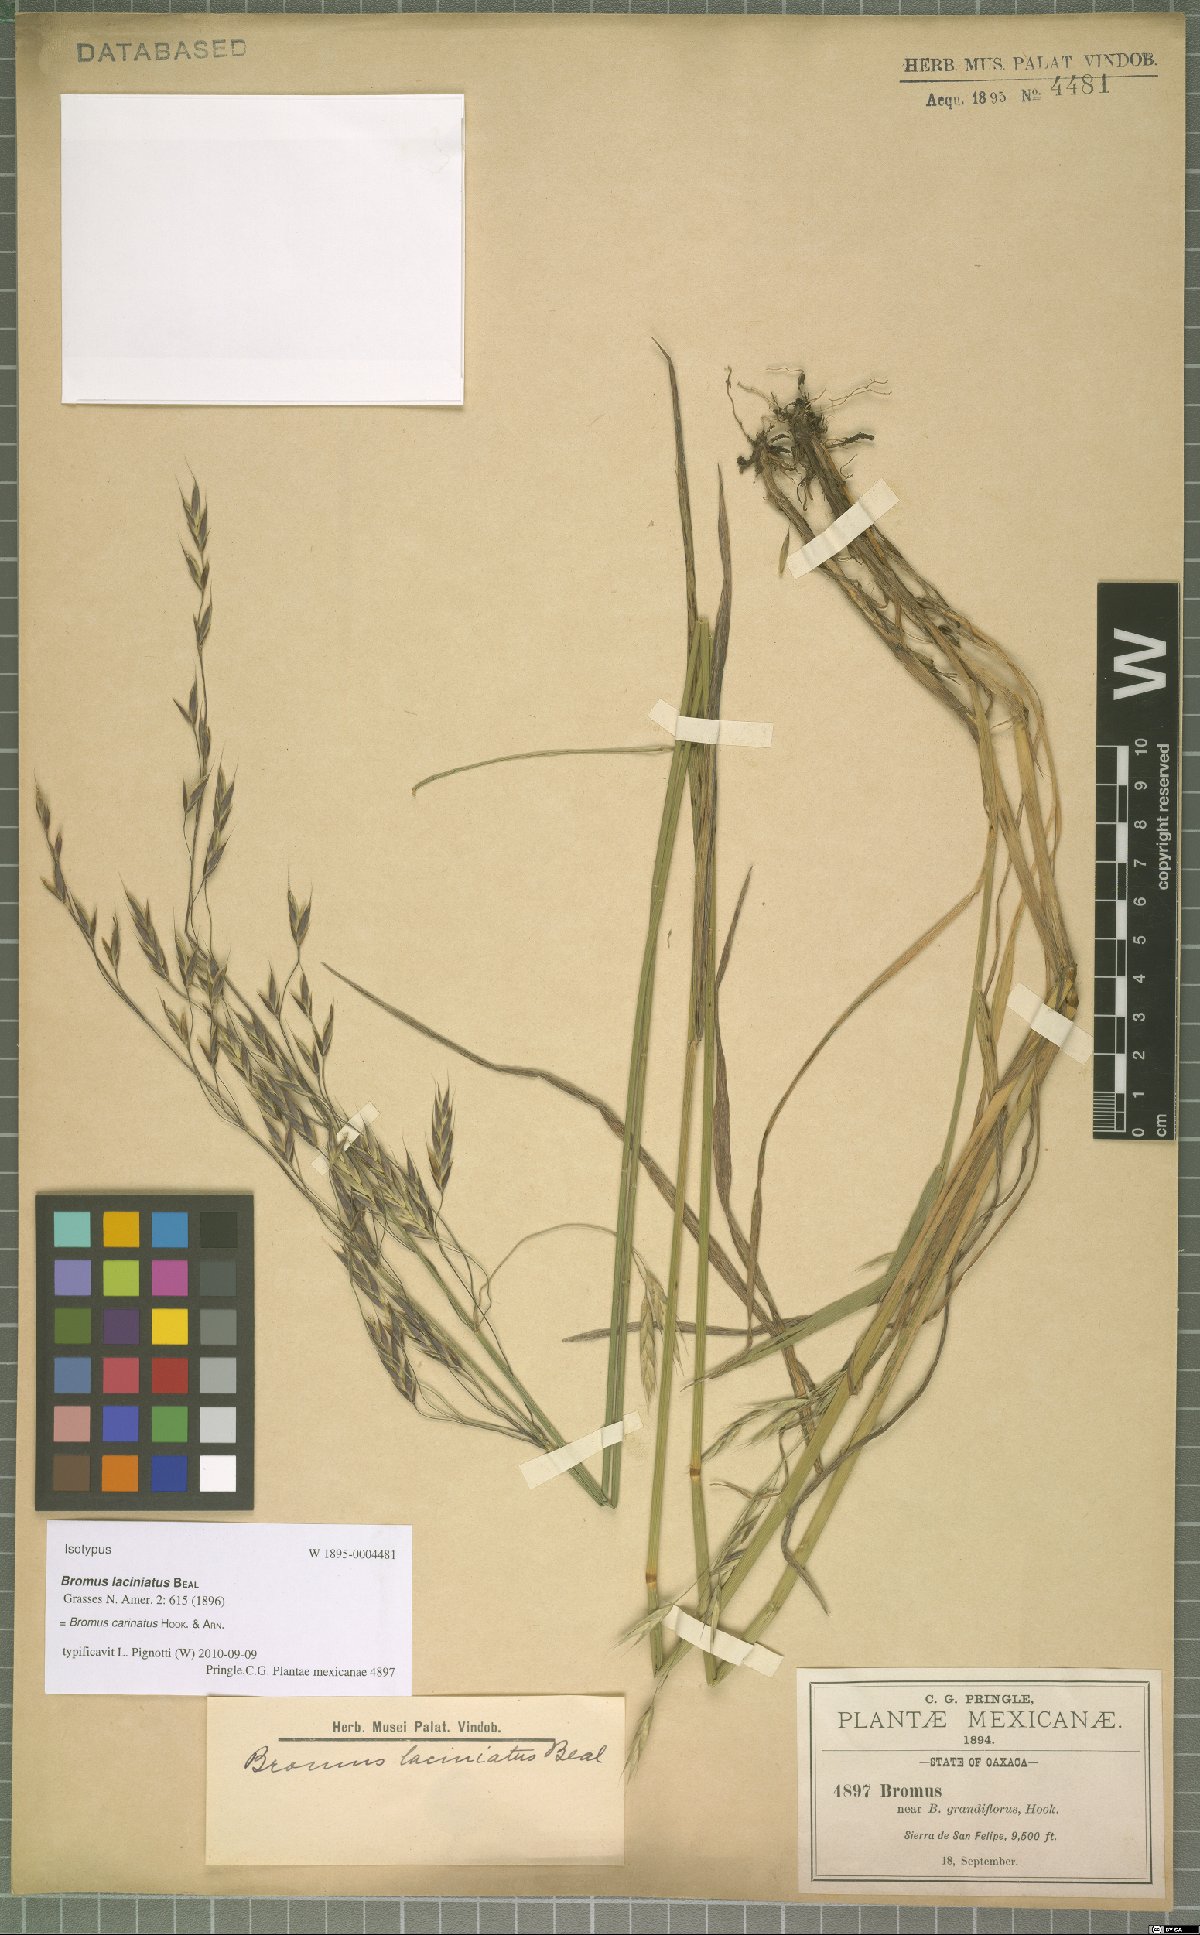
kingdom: Plantae
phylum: Tracheophyta
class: Liliopsida
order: Poales
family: Poaceae
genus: Bromus
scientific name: Bromus carinatus
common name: Mountain brome
